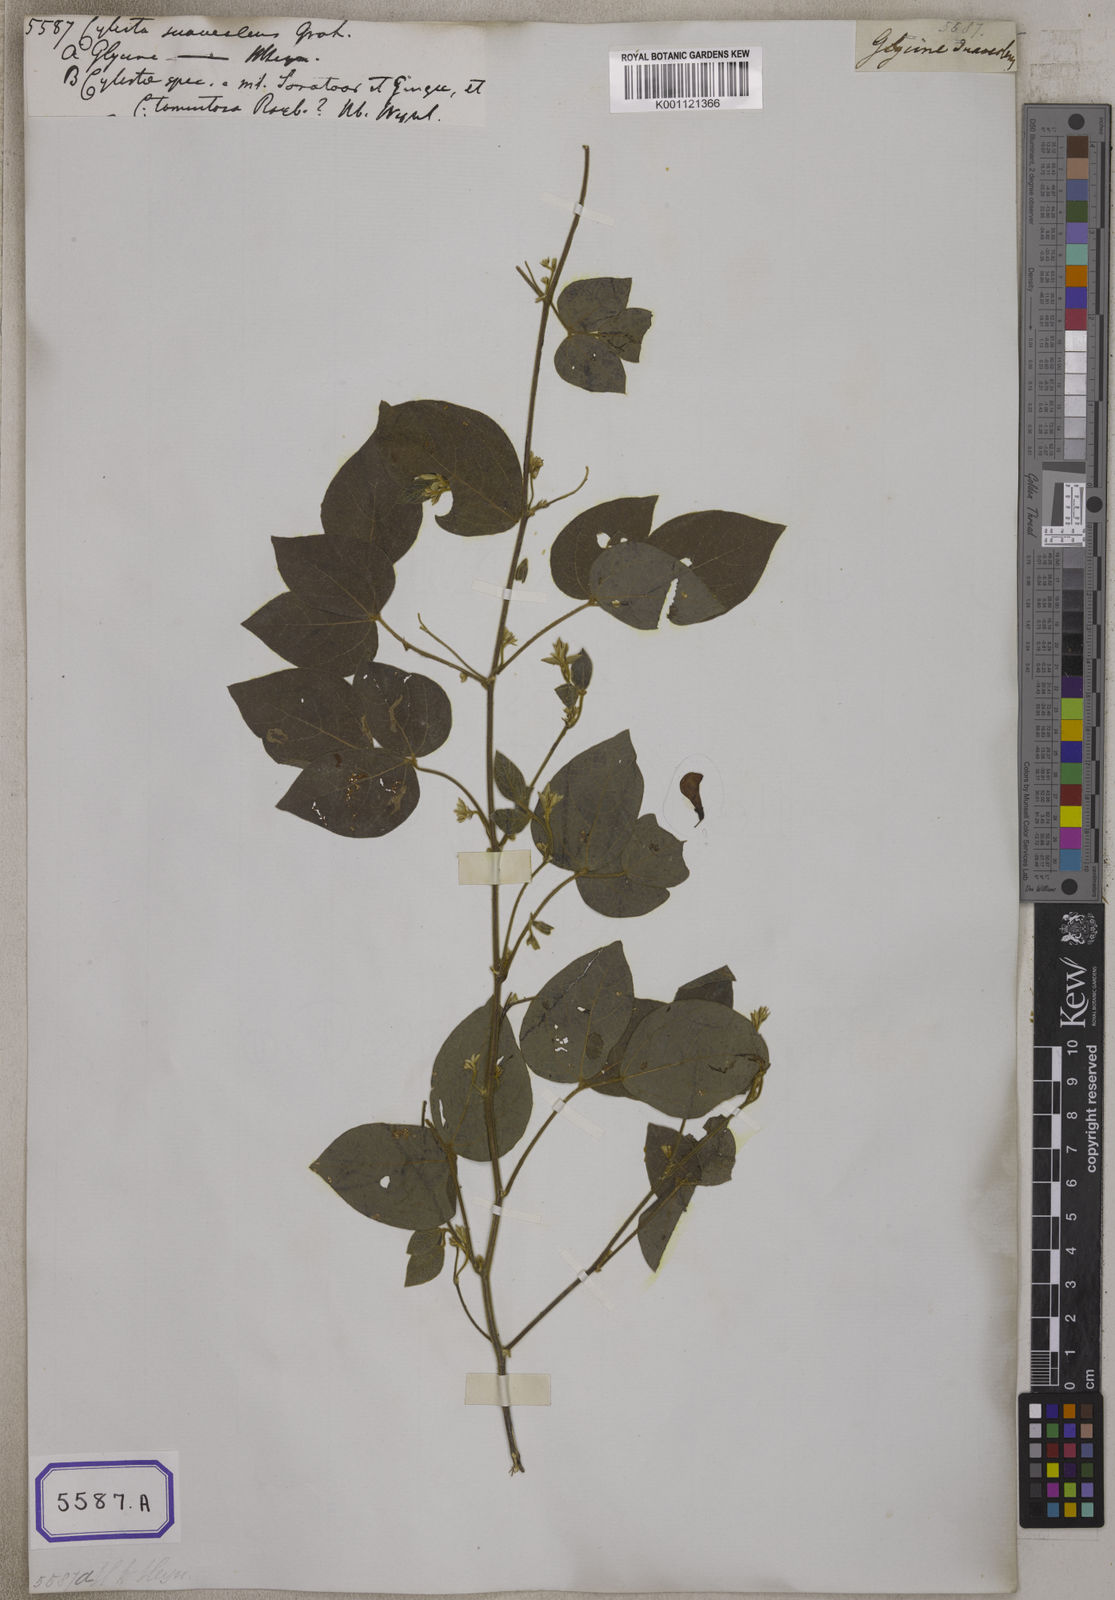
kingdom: Plantae
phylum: Tracheophyta
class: Magnoliopsida
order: Fabales
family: Fabaceae
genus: Rhynchosia
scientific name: Rhynchosia rufescens
